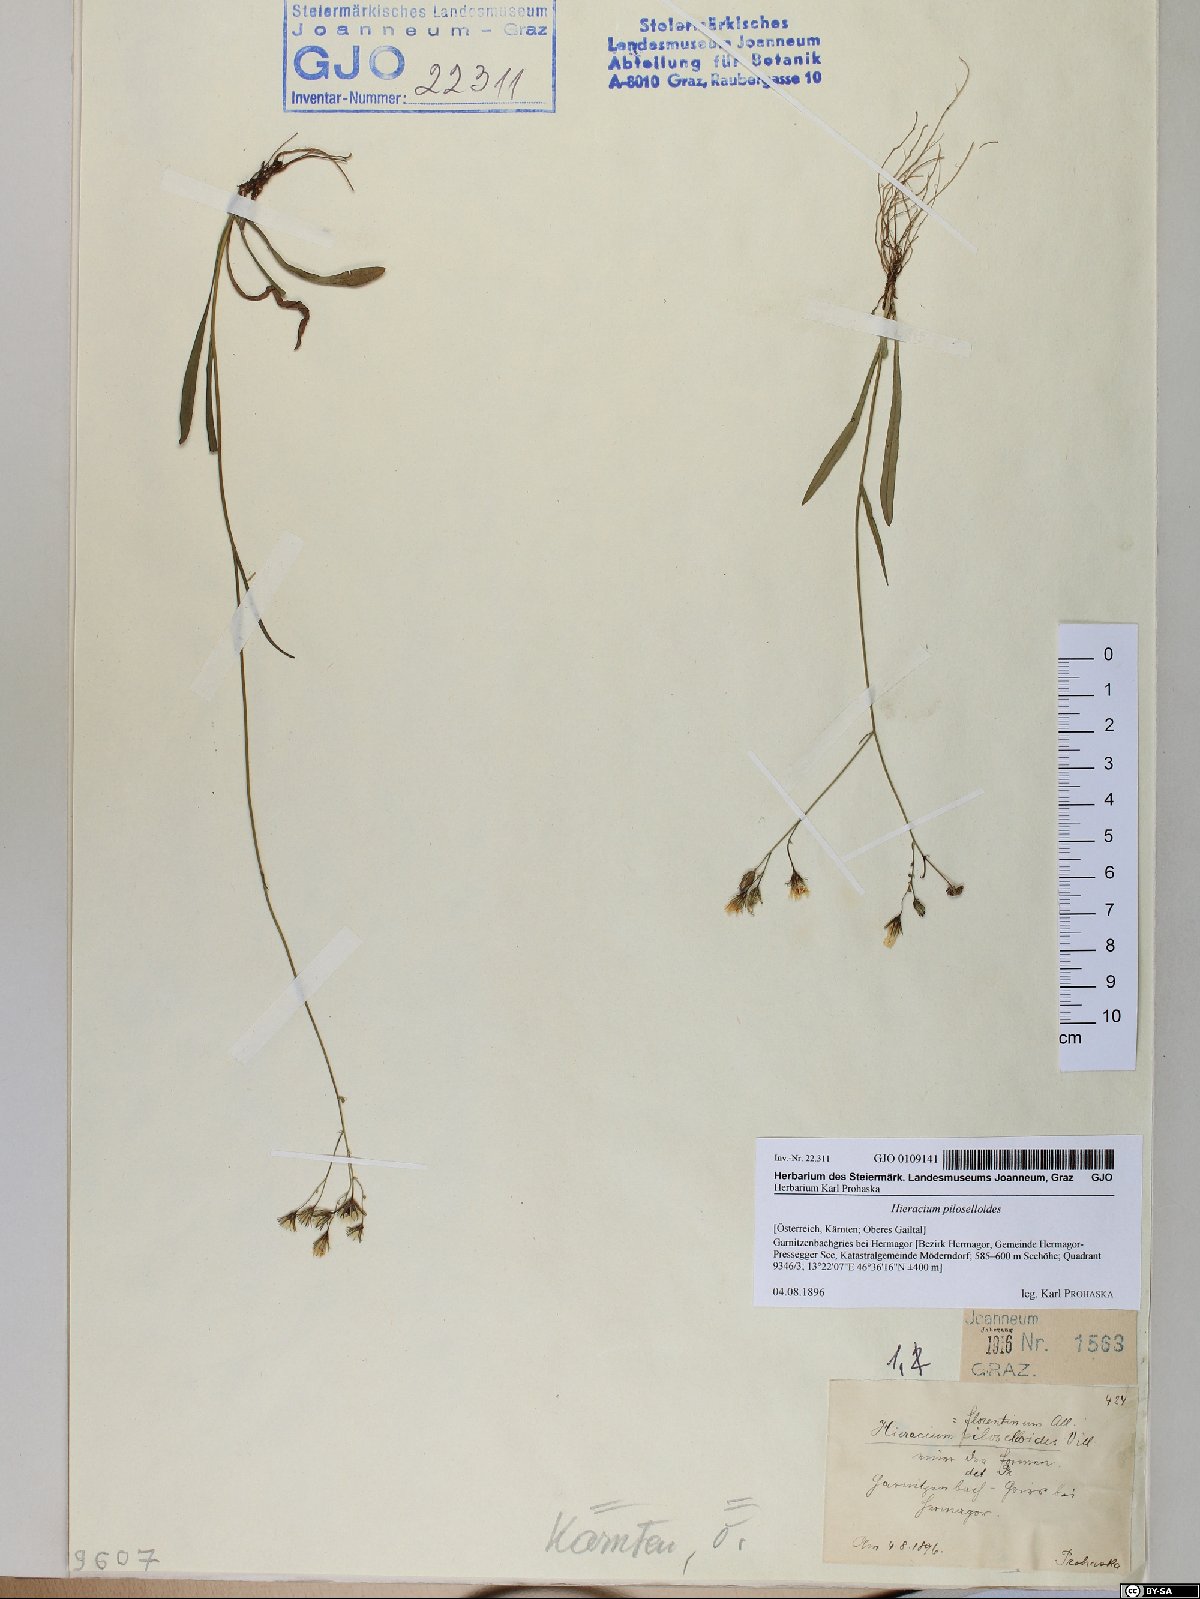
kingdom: Plantae
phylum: Tracheophyta
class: Magnoliopsida
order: Asterales
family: Asteraceae
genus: Pilosella
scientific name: Pilosella piloselloides
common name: Glaucous king-devil
